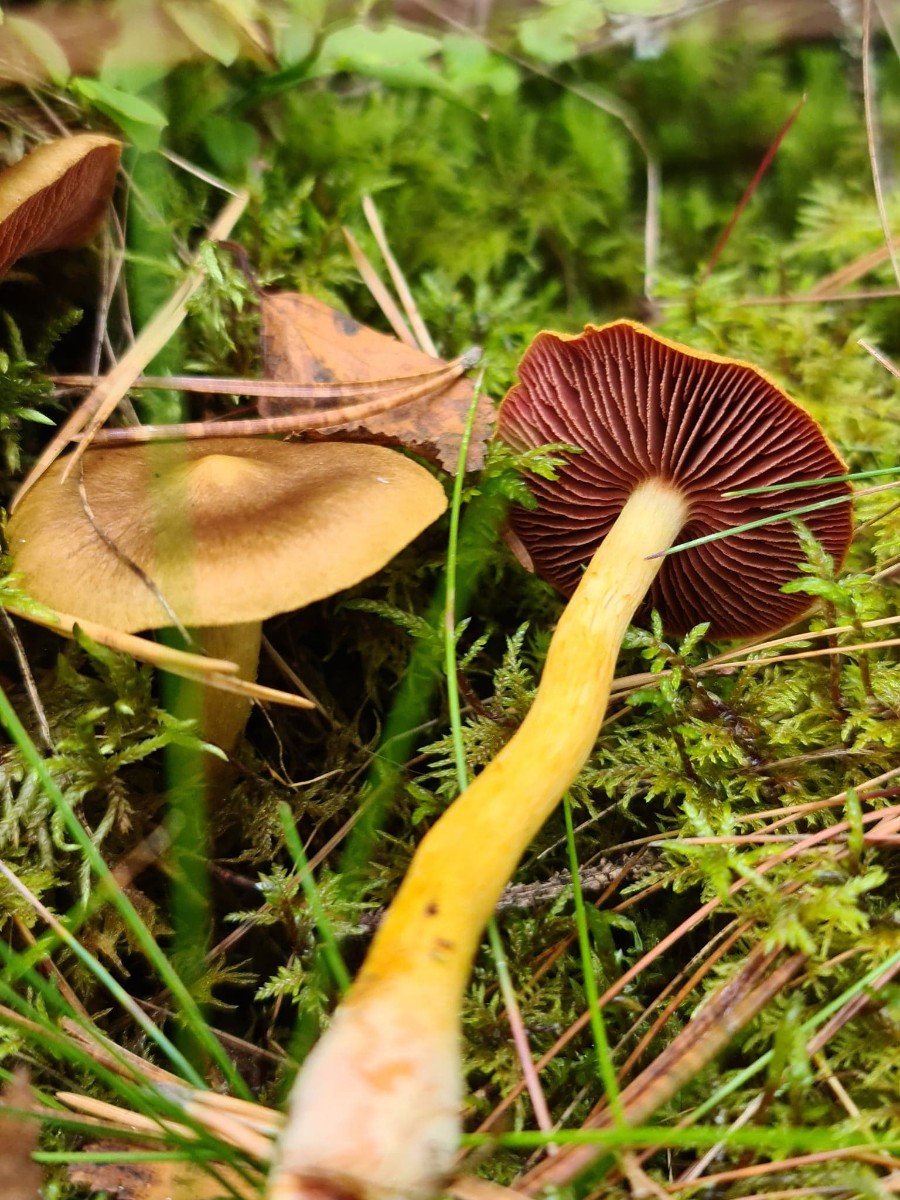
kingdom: Fungi
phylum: Basidiomycota
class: Agaricomycetes
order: Agaricales
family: Cortinariaceae
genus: Cortinarius
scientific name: Cortinarius
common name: cinnoberbladet slørhat
